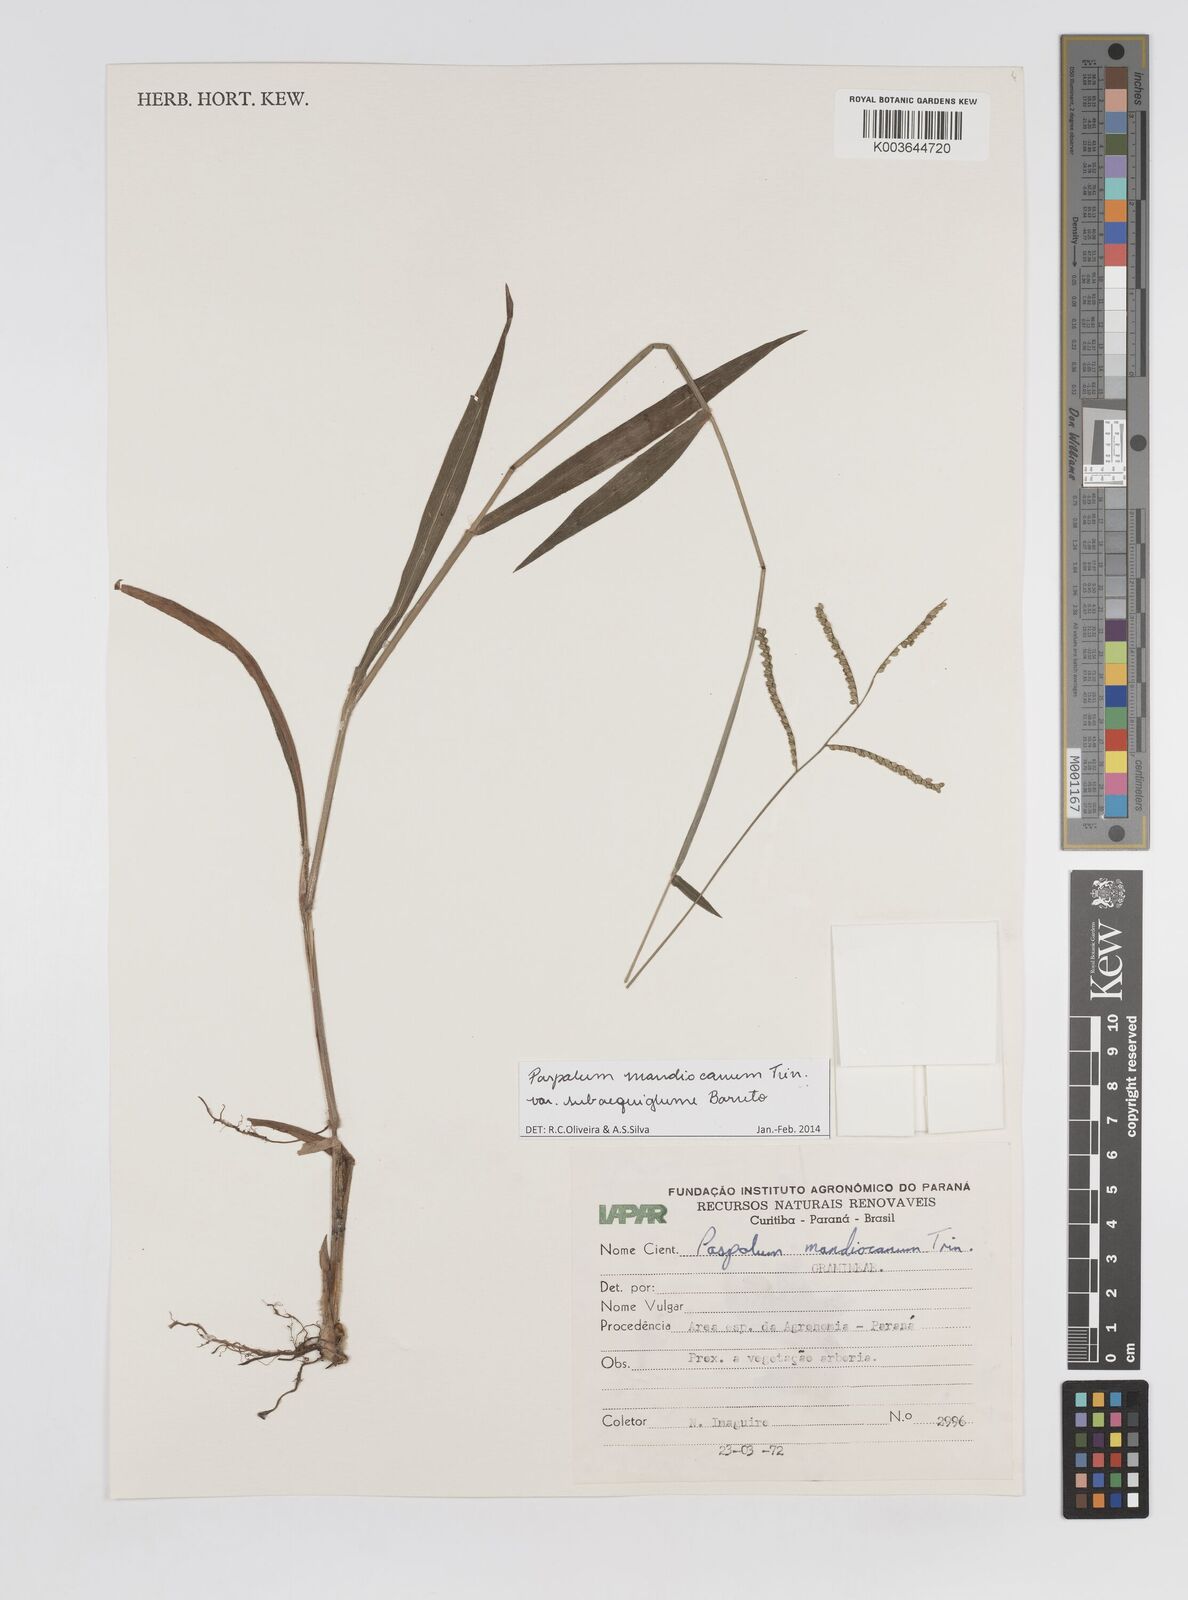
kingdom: Plantae
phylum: Tracheophyta
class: Liliopsida
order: Poales
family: Poaceae
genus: Paspalum
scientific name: Paspalum mandiocanum
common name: Paspalum
